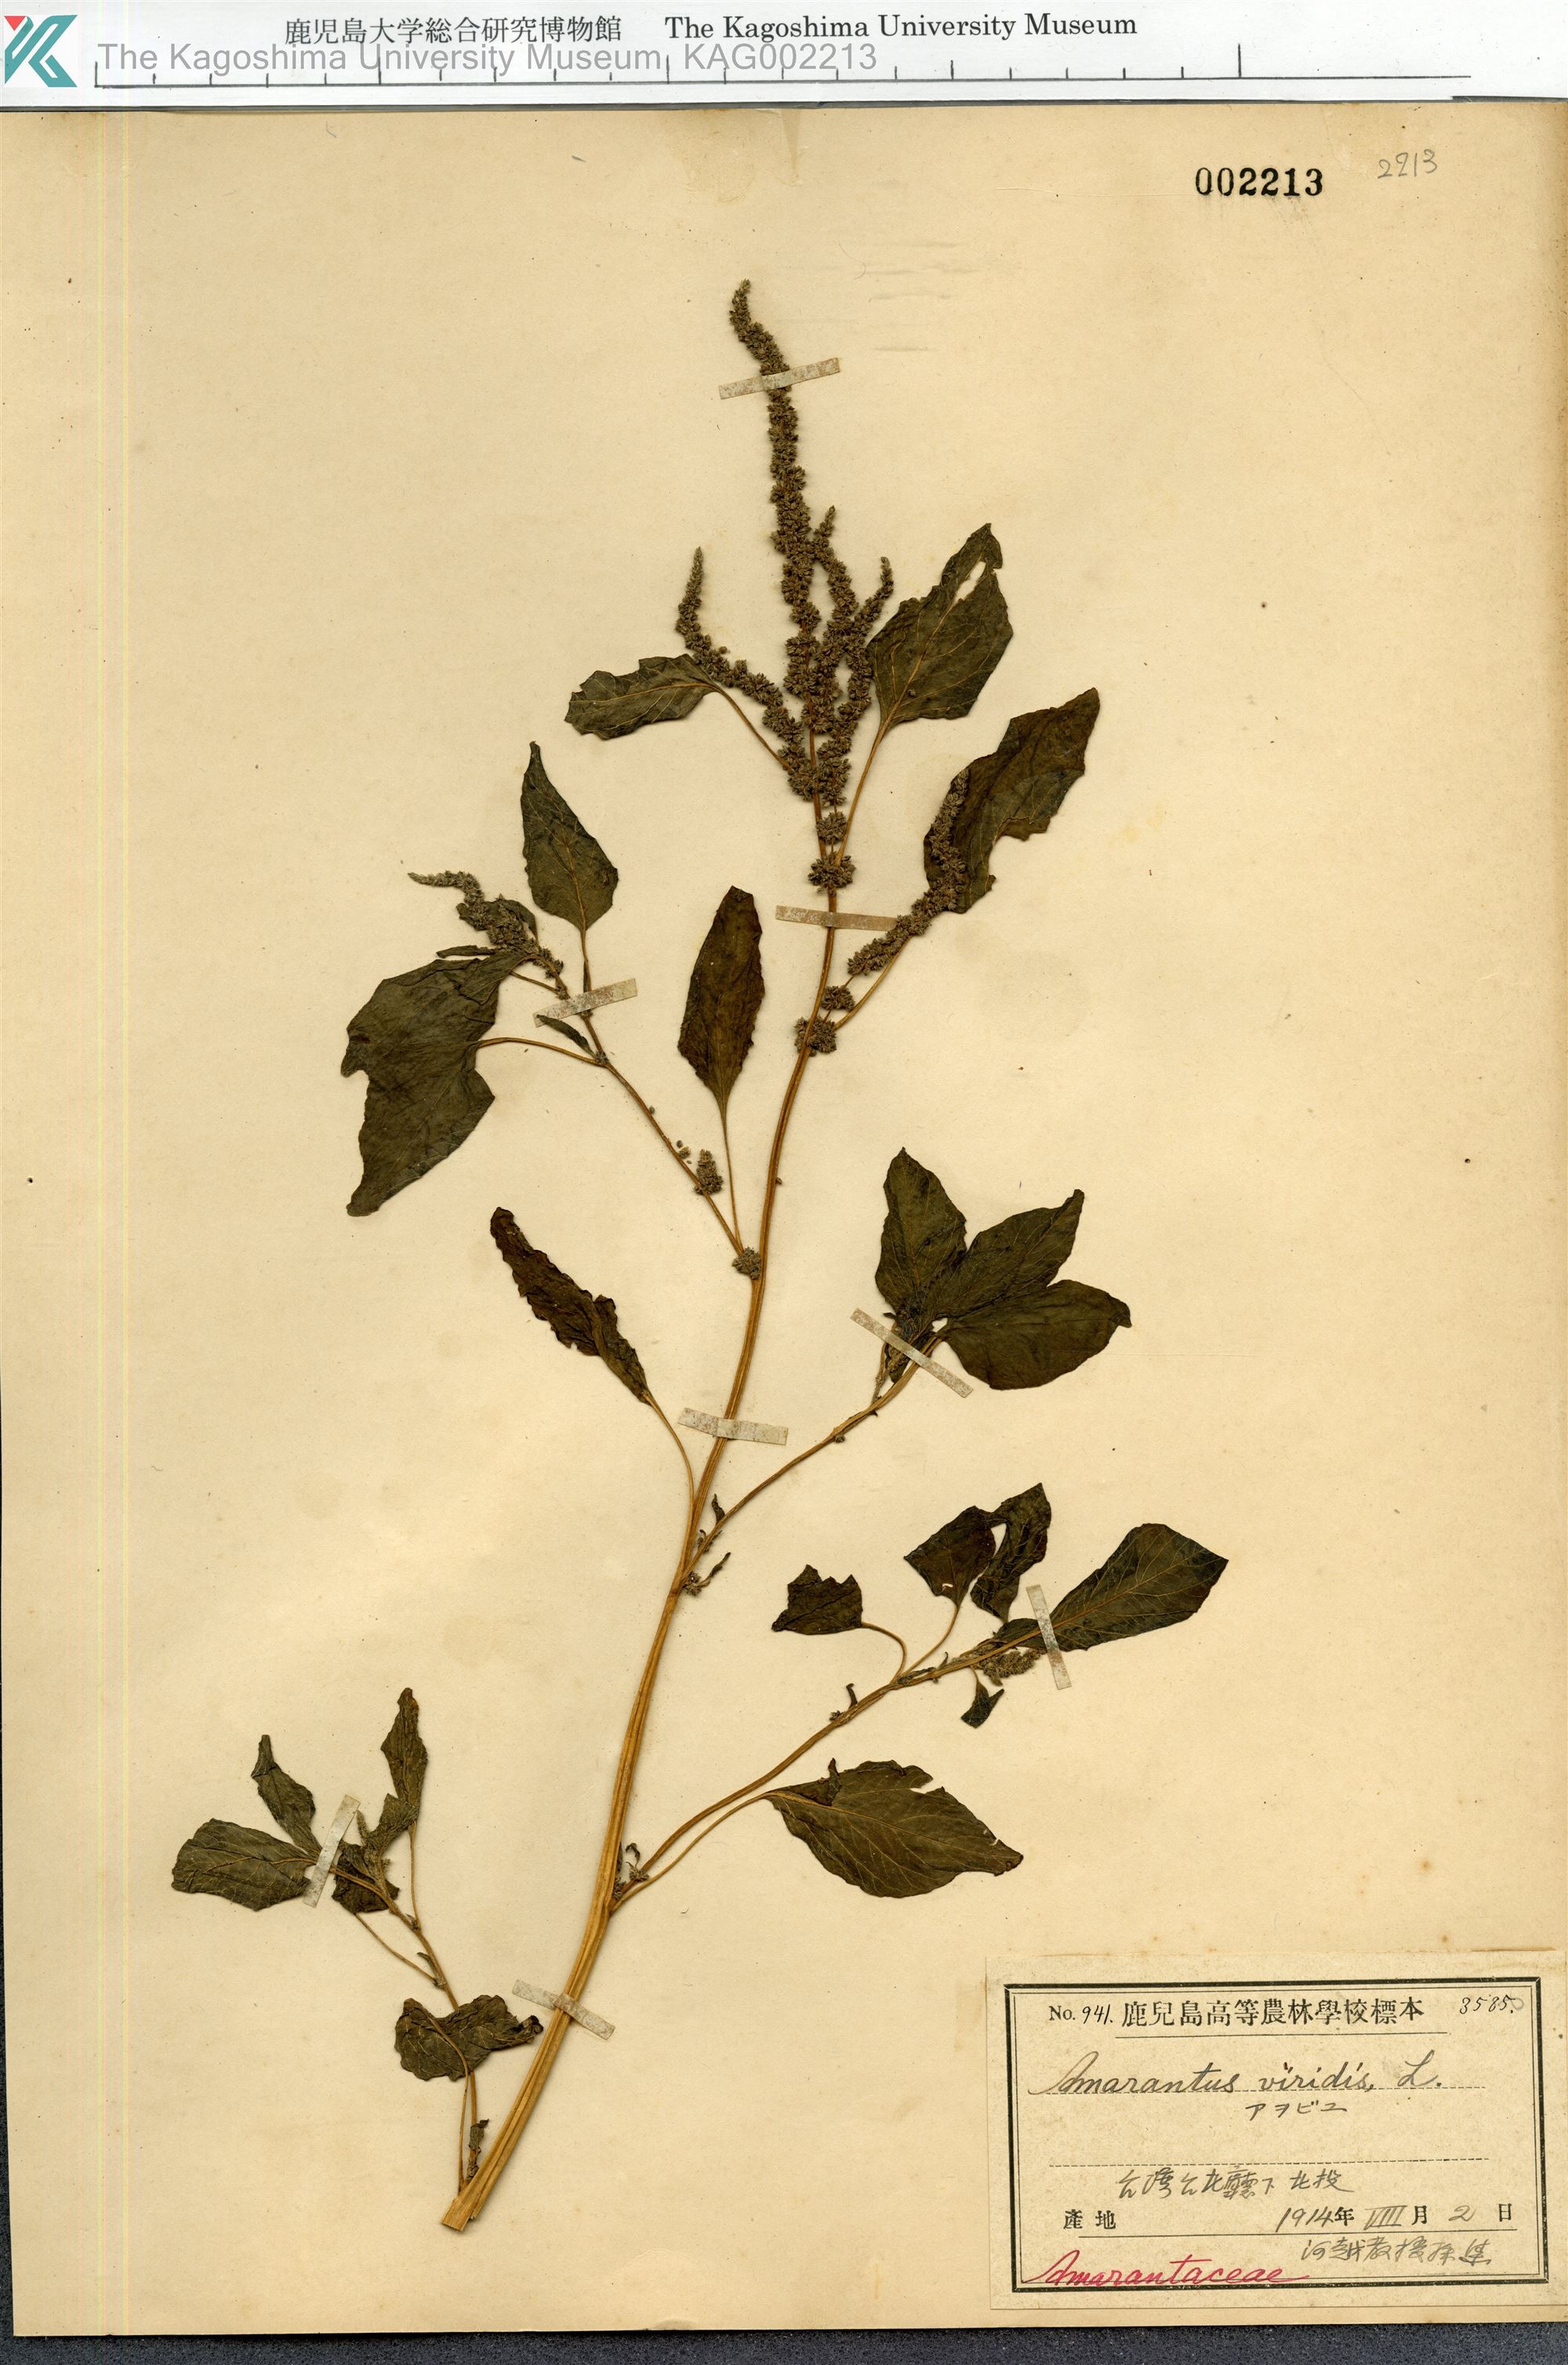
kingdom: Plantae
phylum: Tracheophyta
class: Magnoliopsida
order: Caryophyllales
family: Amaranthaceae
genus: Amaranthus
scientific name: Amaranthus viridis
